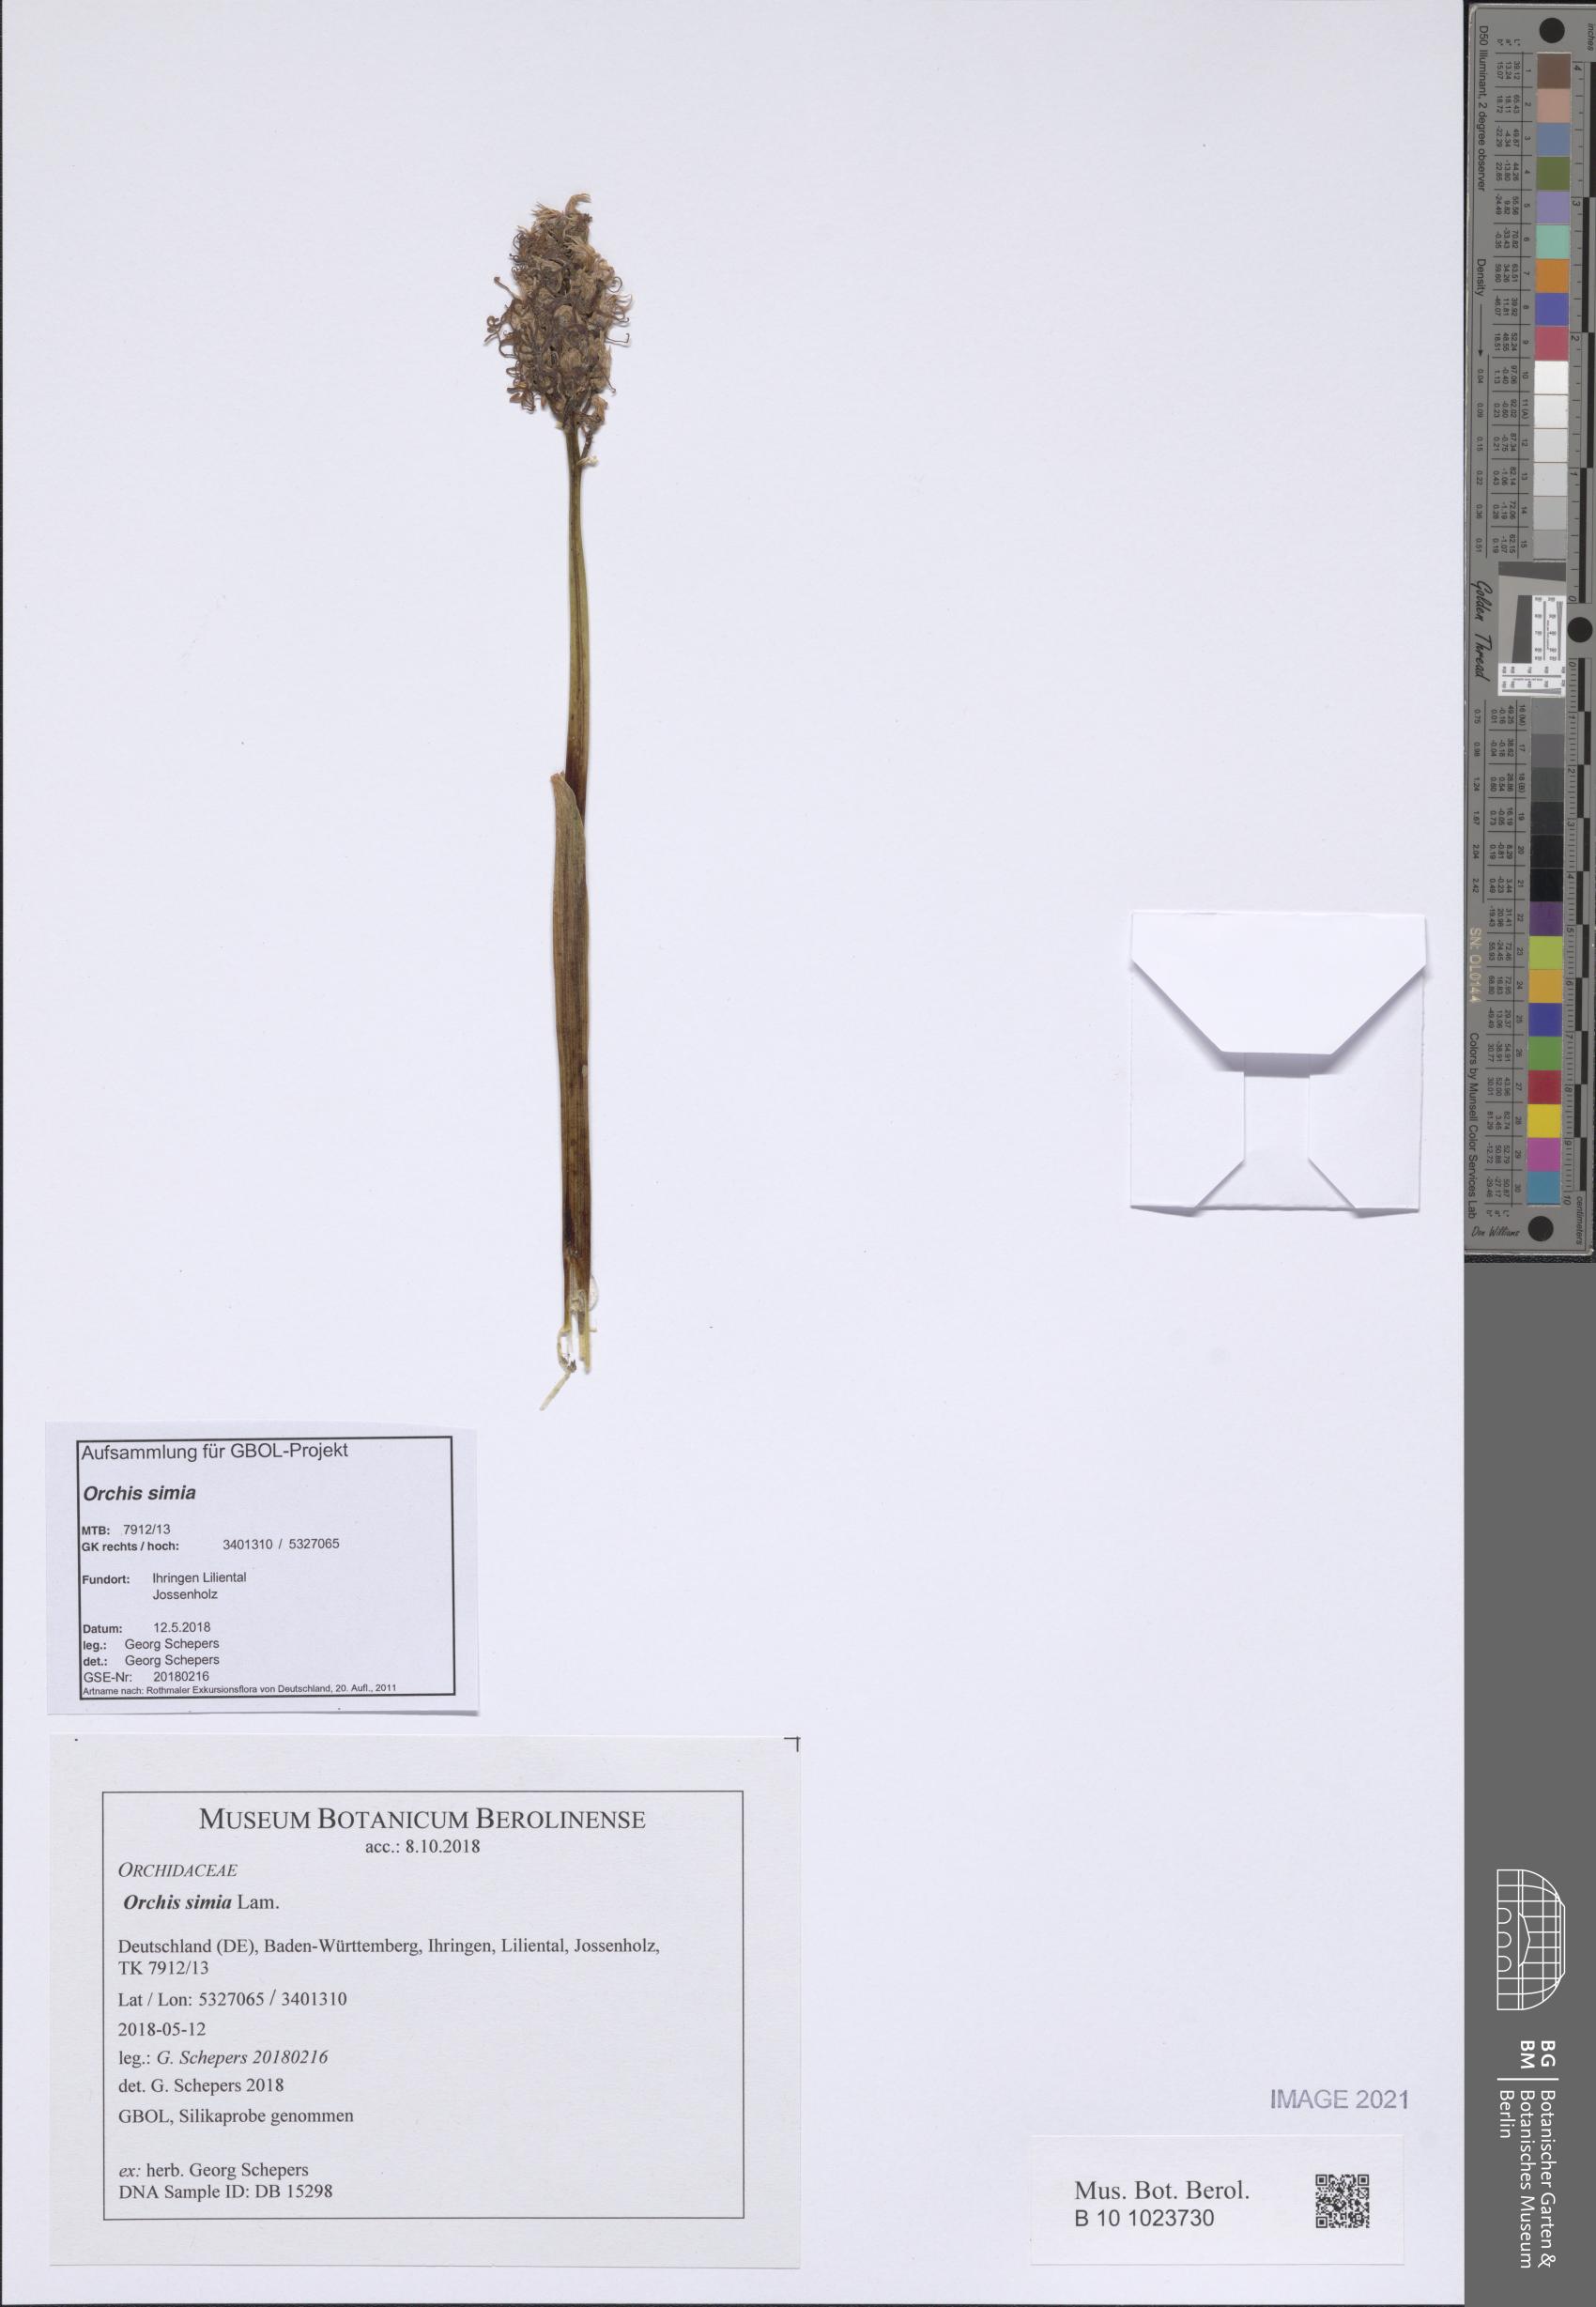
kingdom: Plantae
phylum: Tracheophyta
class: Liliopsida
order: Asparagales
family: Orchidaceae
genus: Orchis
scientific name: Orchis simia
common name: Monkey orchid
